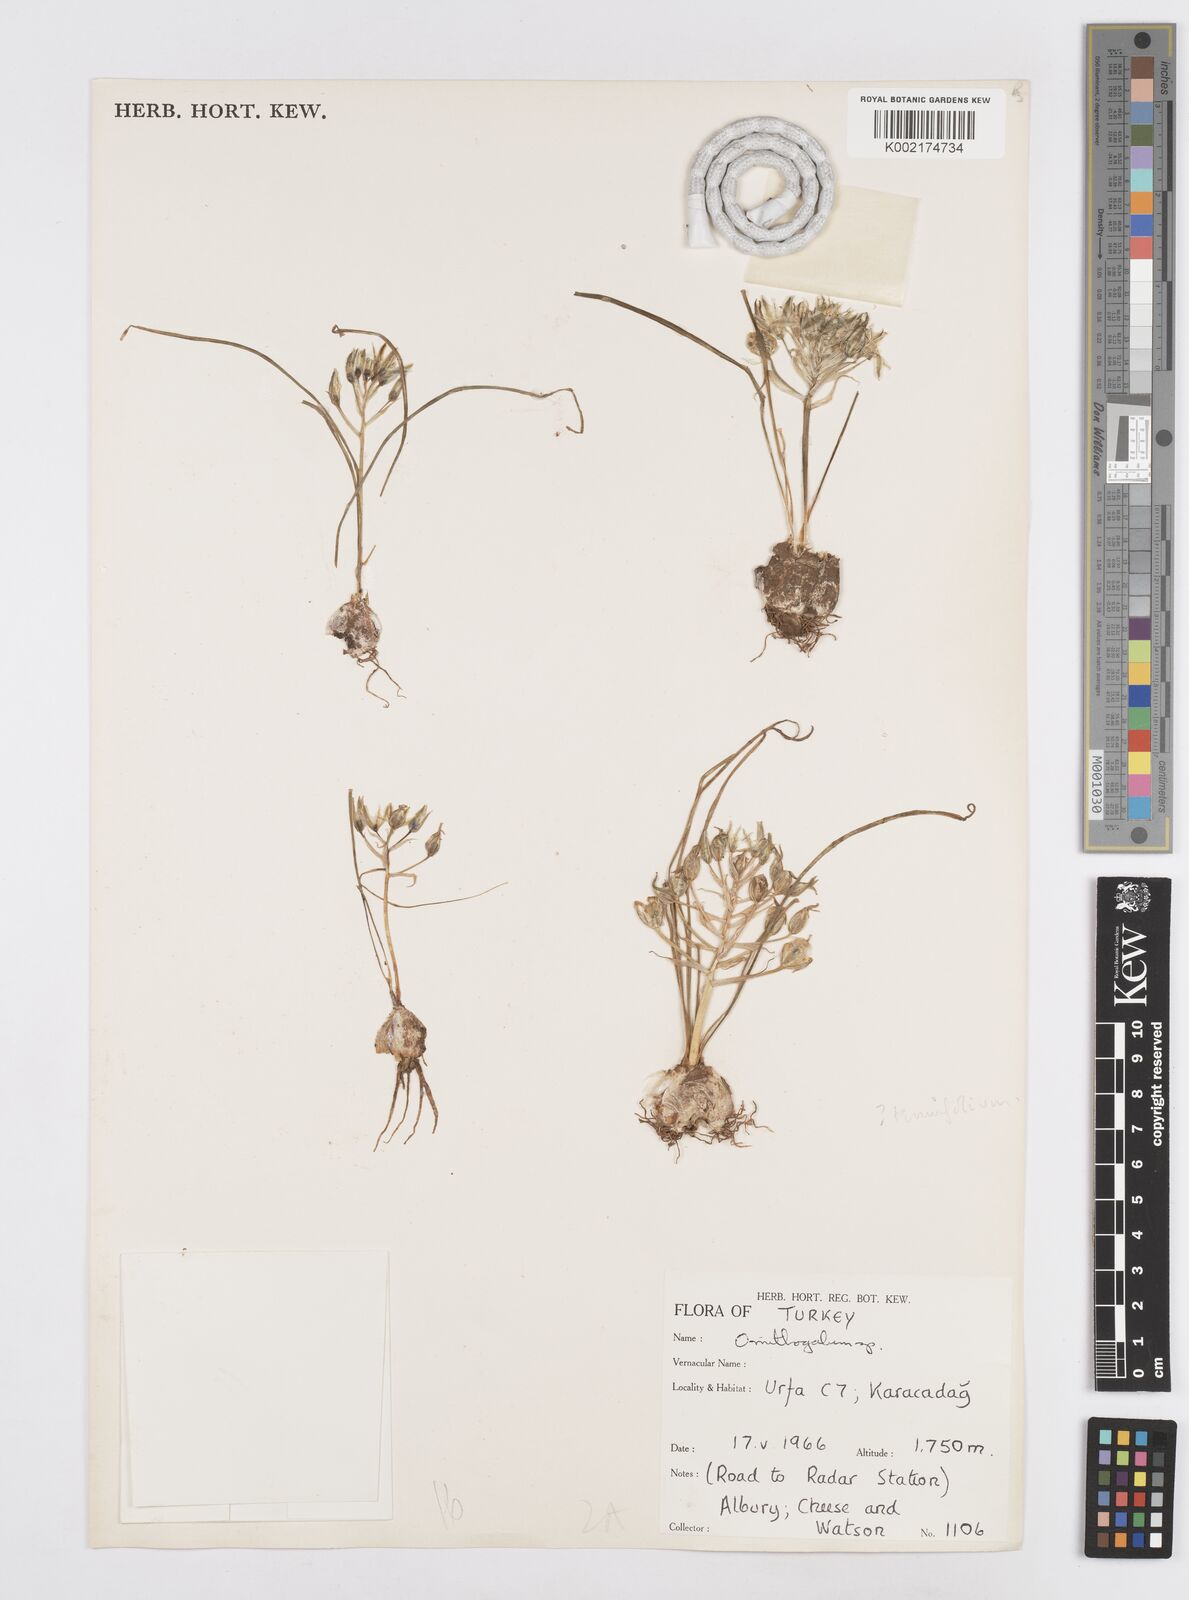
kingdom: Plantae
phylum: Tracheophyta
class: Liliopsida
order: Asparagales
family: Asparagaceae
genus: Ornithogalum
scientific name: Ornithogalum gussonei
